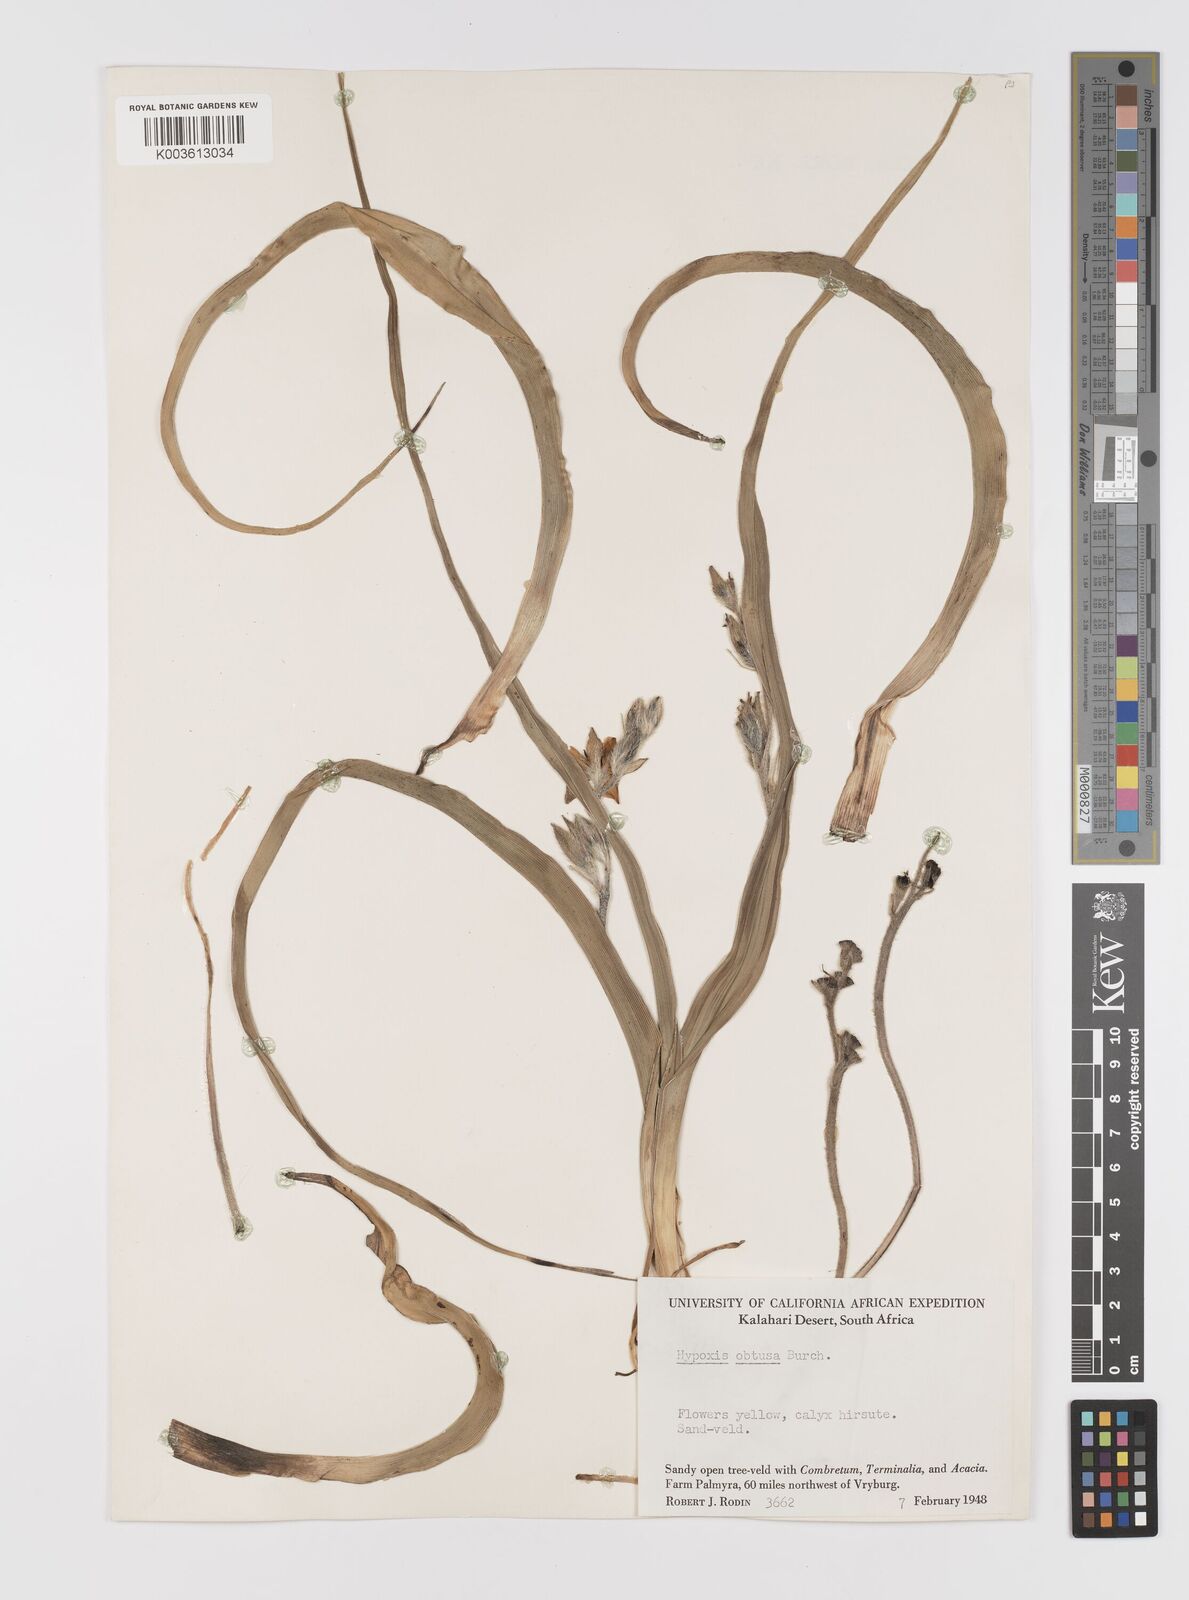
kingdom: Plantae
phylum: Tracheophyta
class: Liliopsida
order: Asparagales
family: Hypoxidaceae
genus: Hypoxis
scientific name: Hypoxis obtusa
